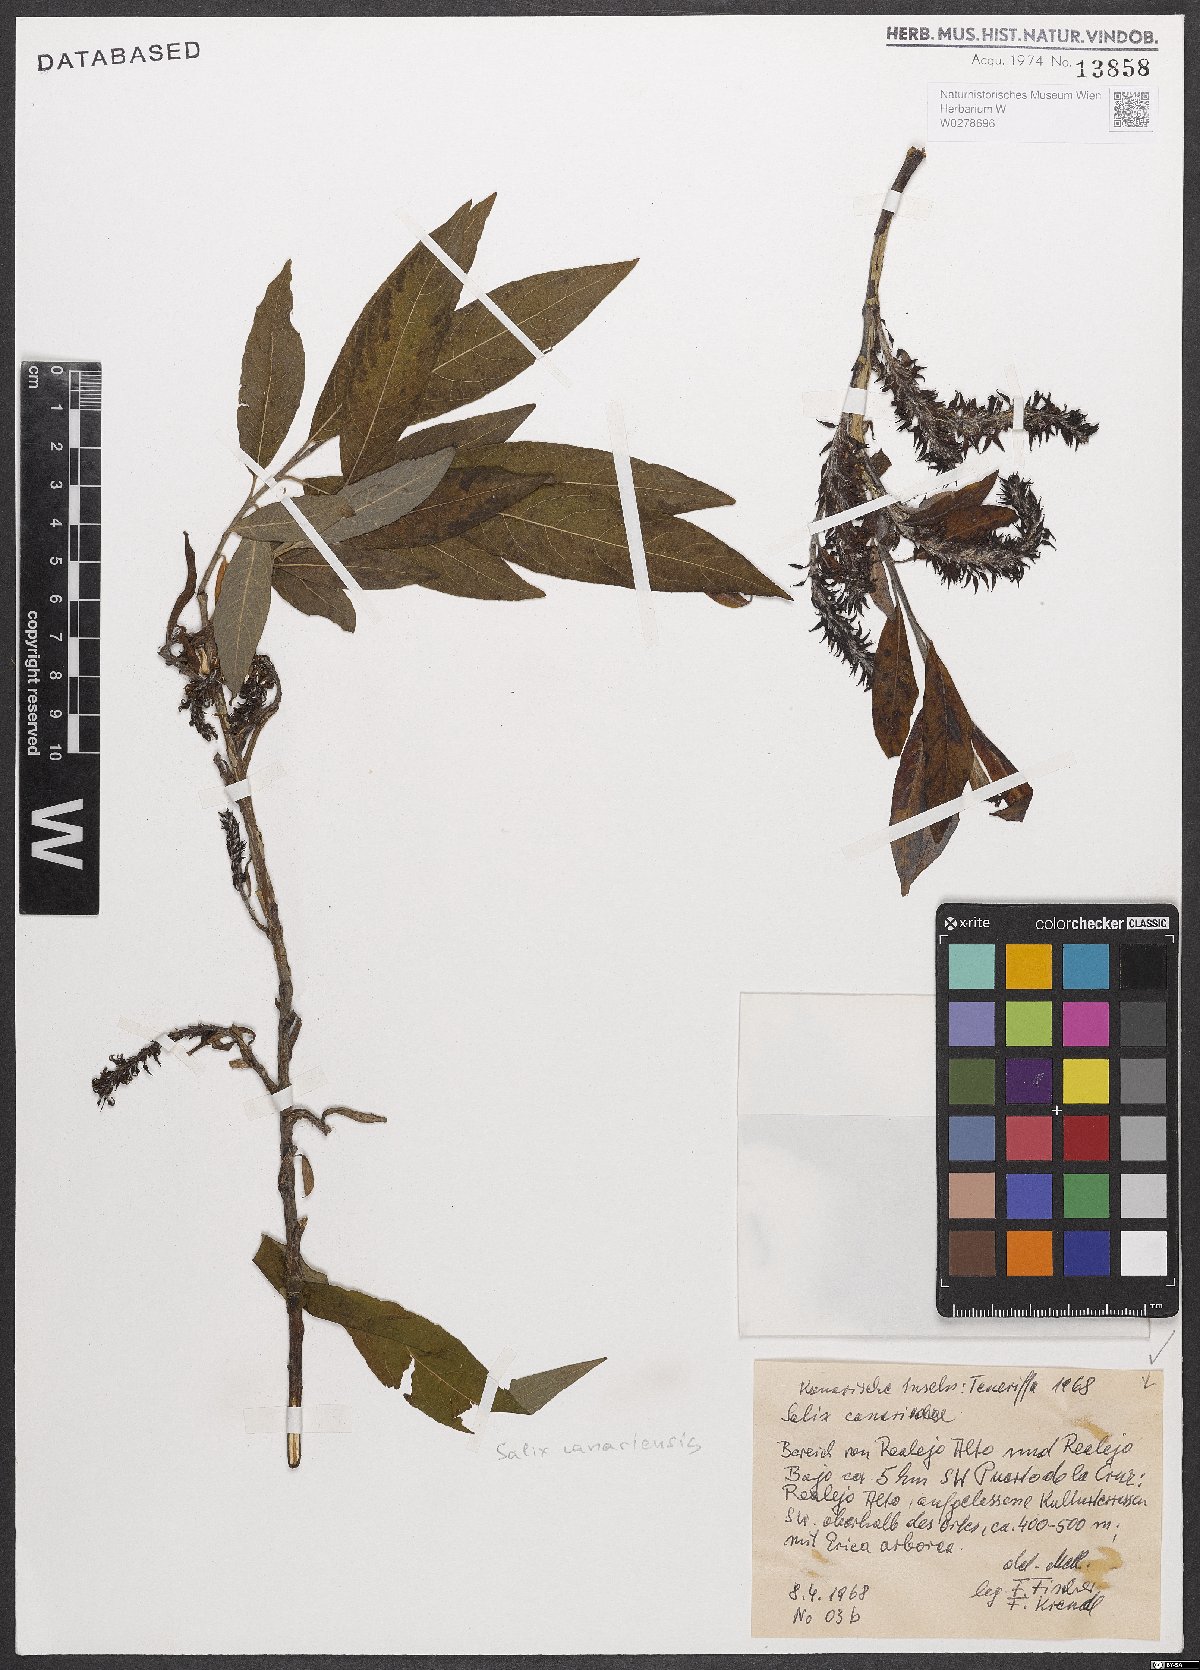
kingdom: Plantae
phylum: Tracheophyta
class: Magnoliopsida
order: Malpighiales
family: Salicaceae
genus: Salix
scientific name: Salix canariensis
